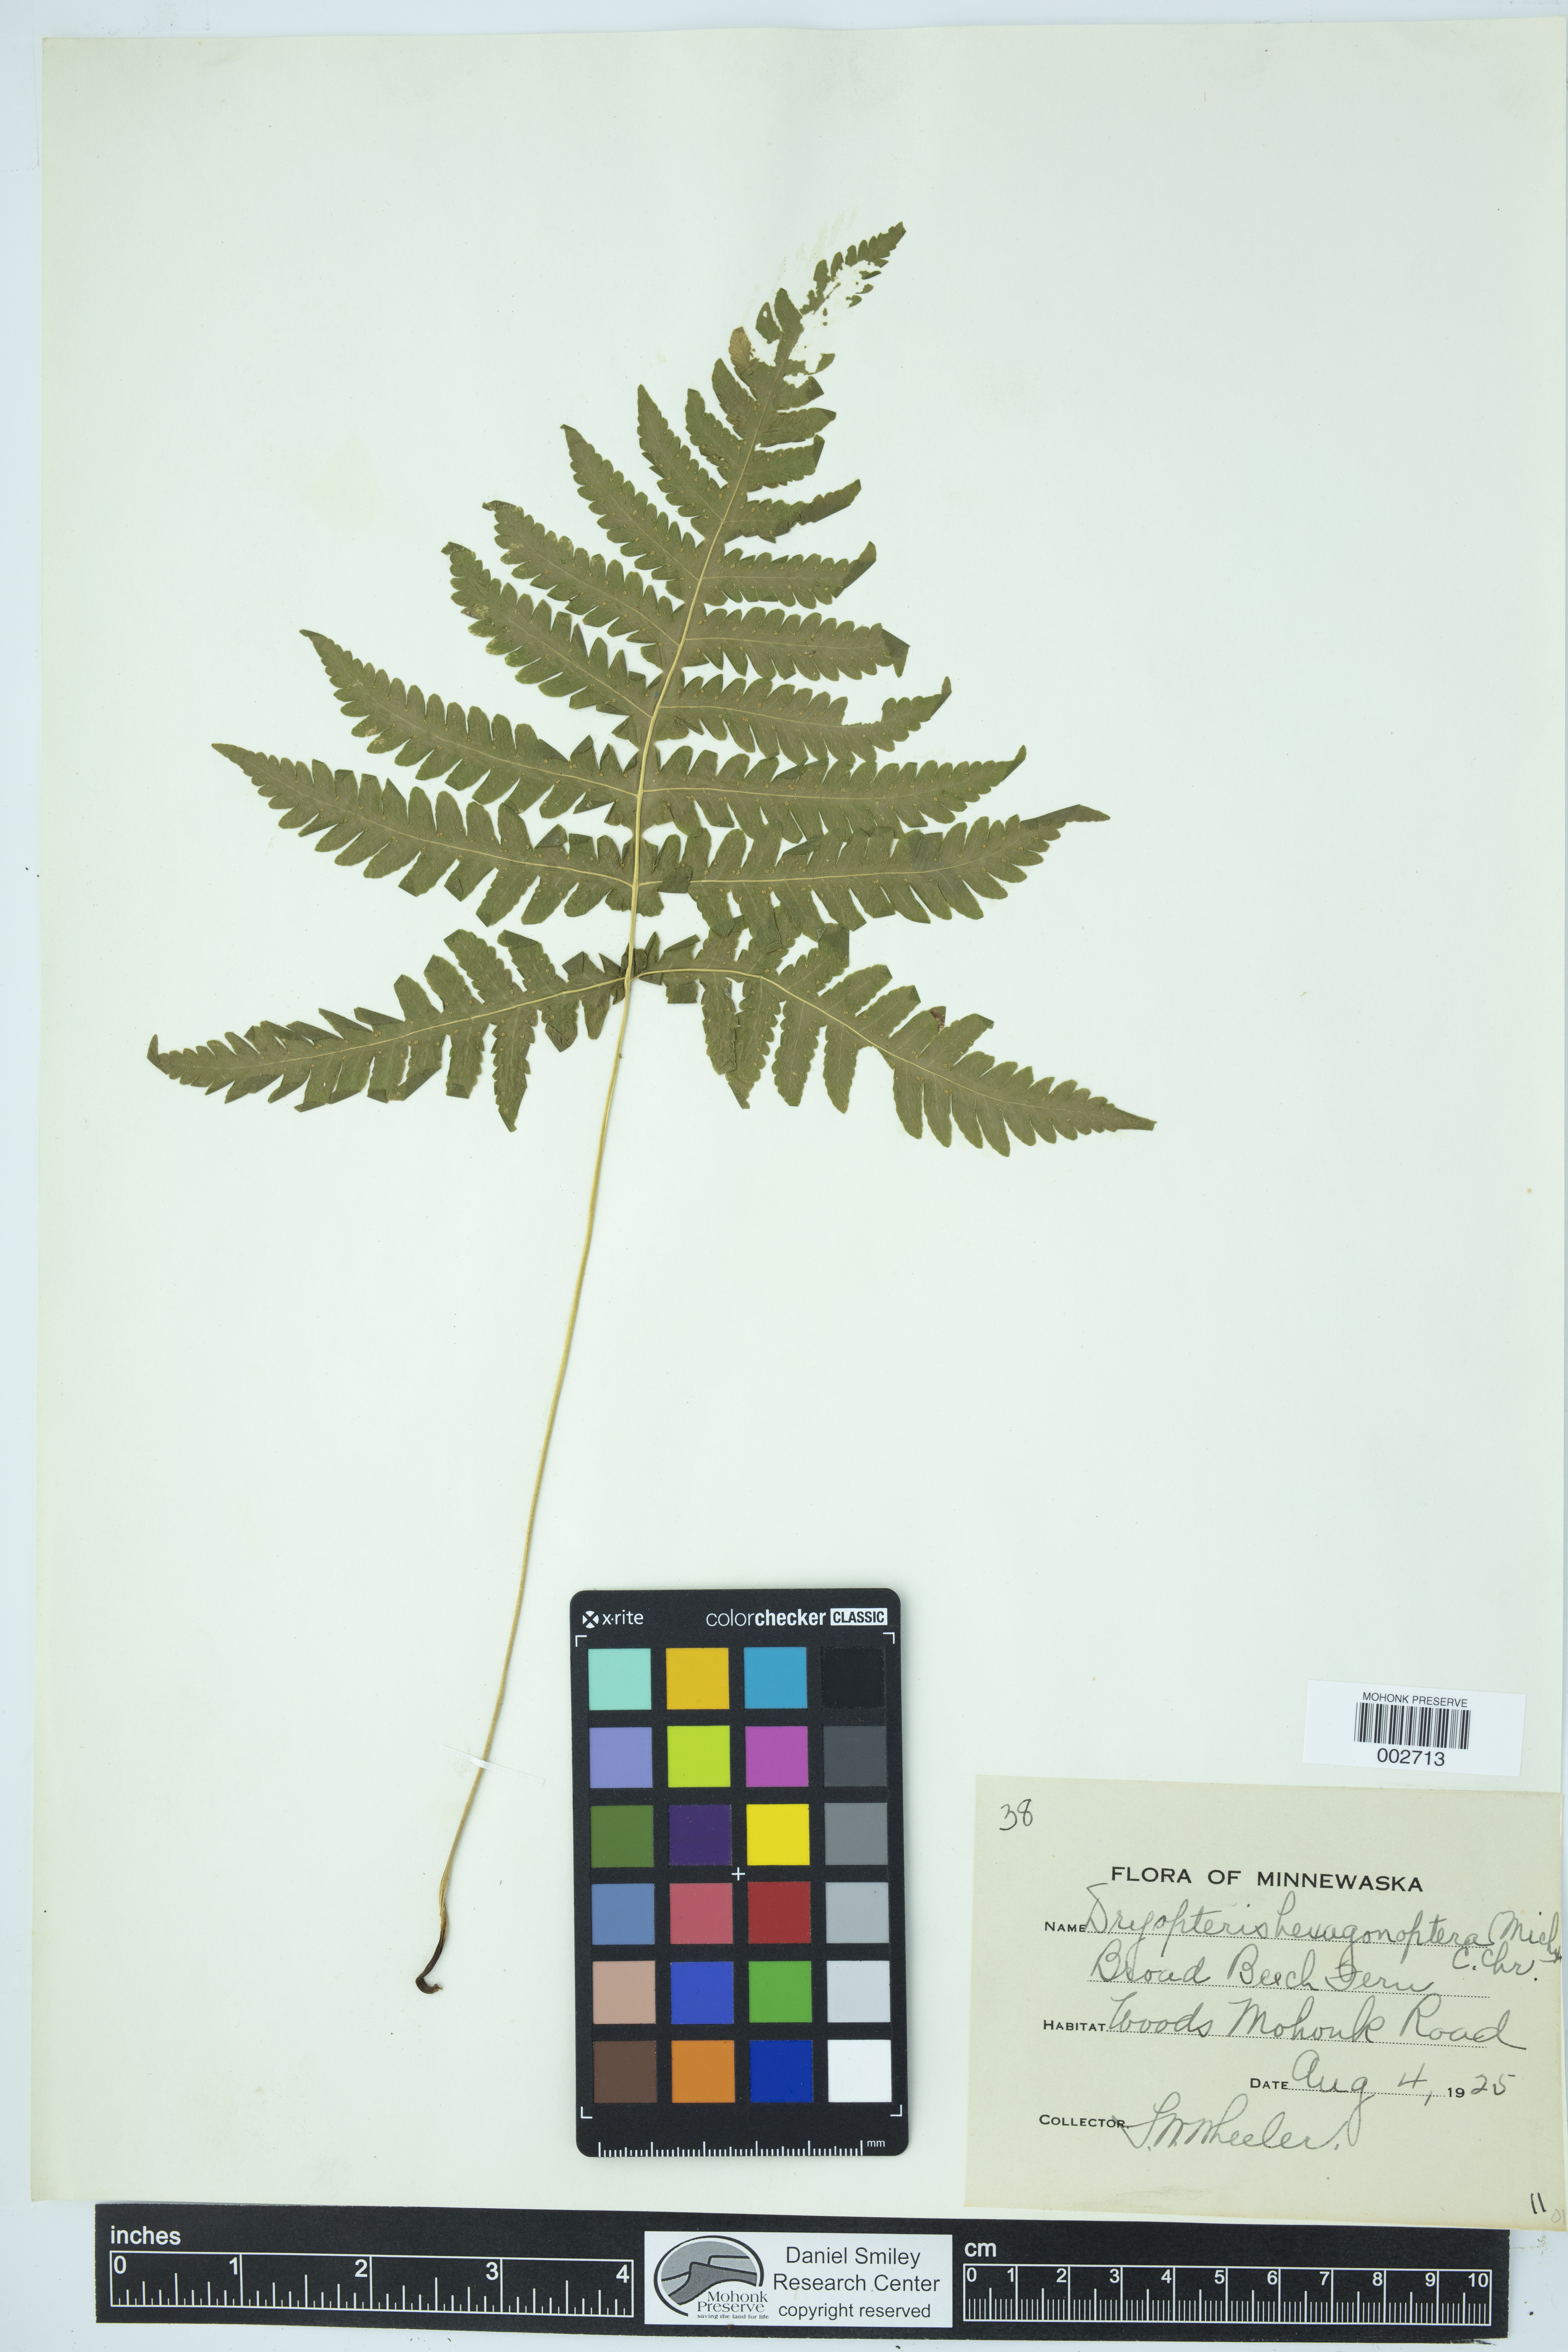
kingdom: Plantae
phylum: Tracheophyta
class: Polypodiopsida
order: Polypodiales
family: Thelypteridaceae
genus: Phegopteris
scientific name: Phegopteris hexagonoptera
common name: Broad beech fern
